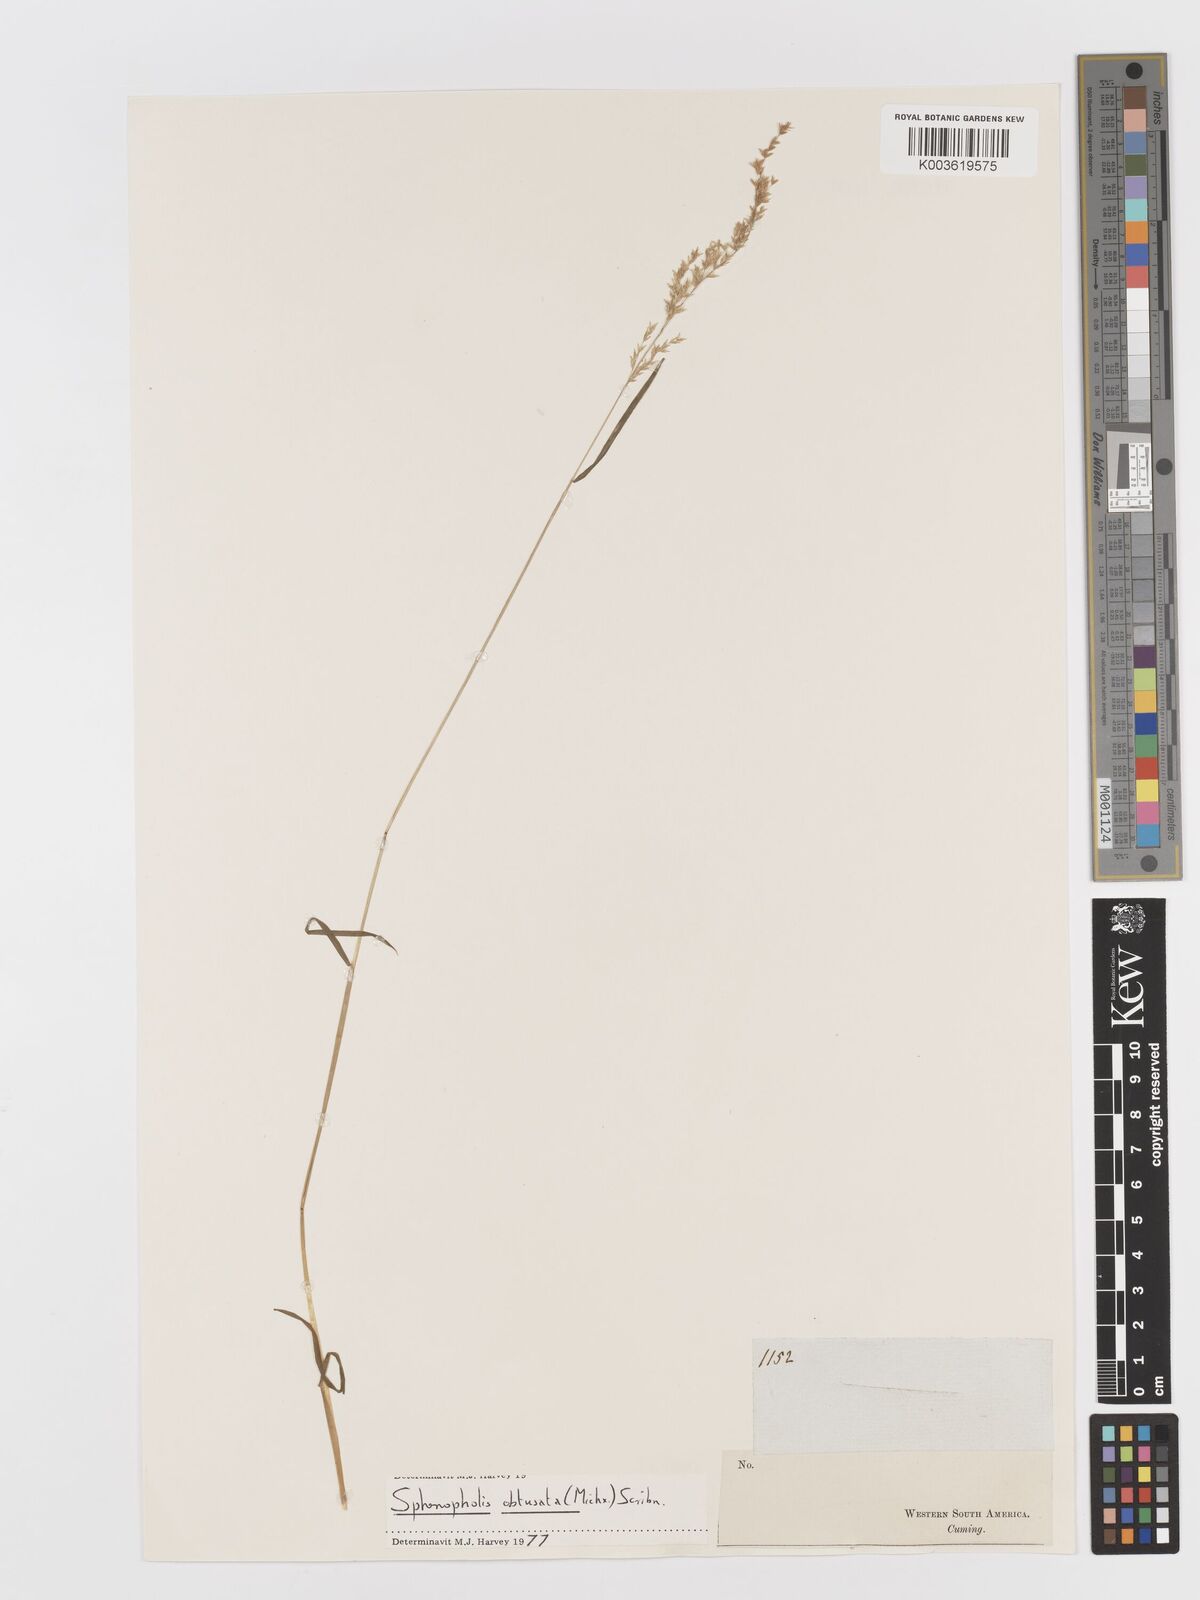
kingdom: Plantae
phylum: Tracheophyta
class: Liliopsida
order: Poales
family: Poaceae
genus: Sphenopholis
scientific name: Sphenopholis obtusata
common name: Prairie grass
